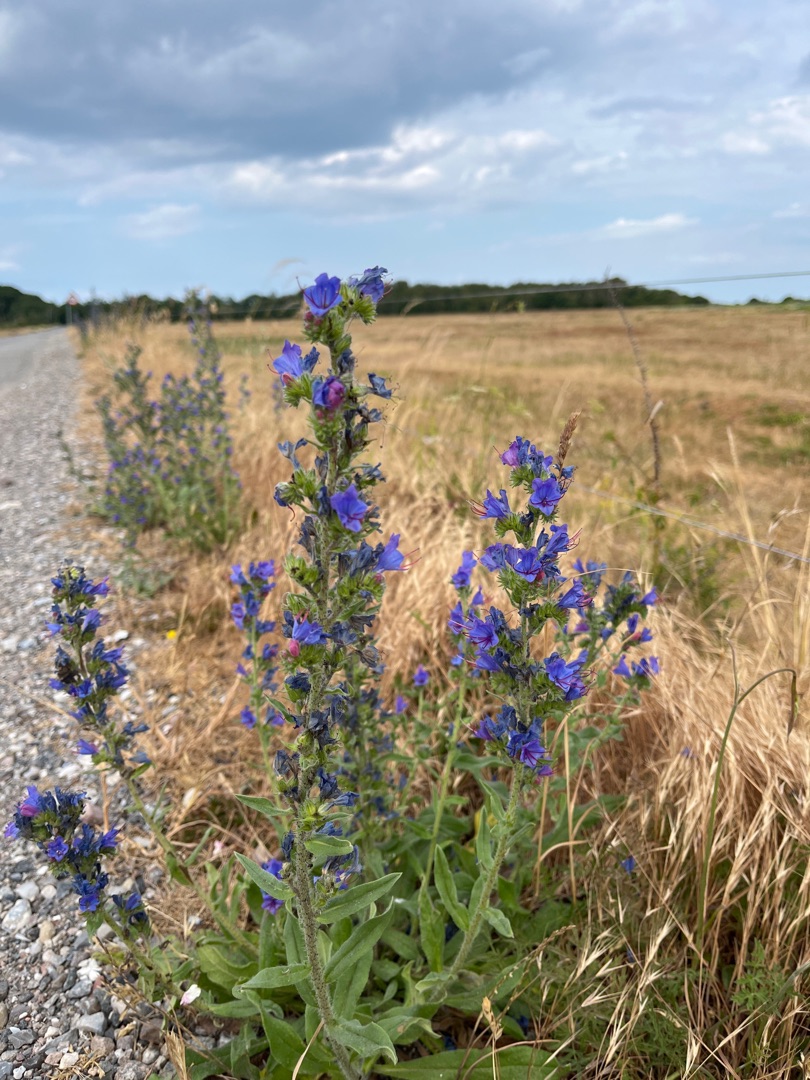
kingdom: Plantae
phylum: Tracheophyta
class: Magnoliopsida
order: Boraginales
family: Boraginaceae
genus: Echium
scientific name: Echium vulgare
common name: Slangehoved
